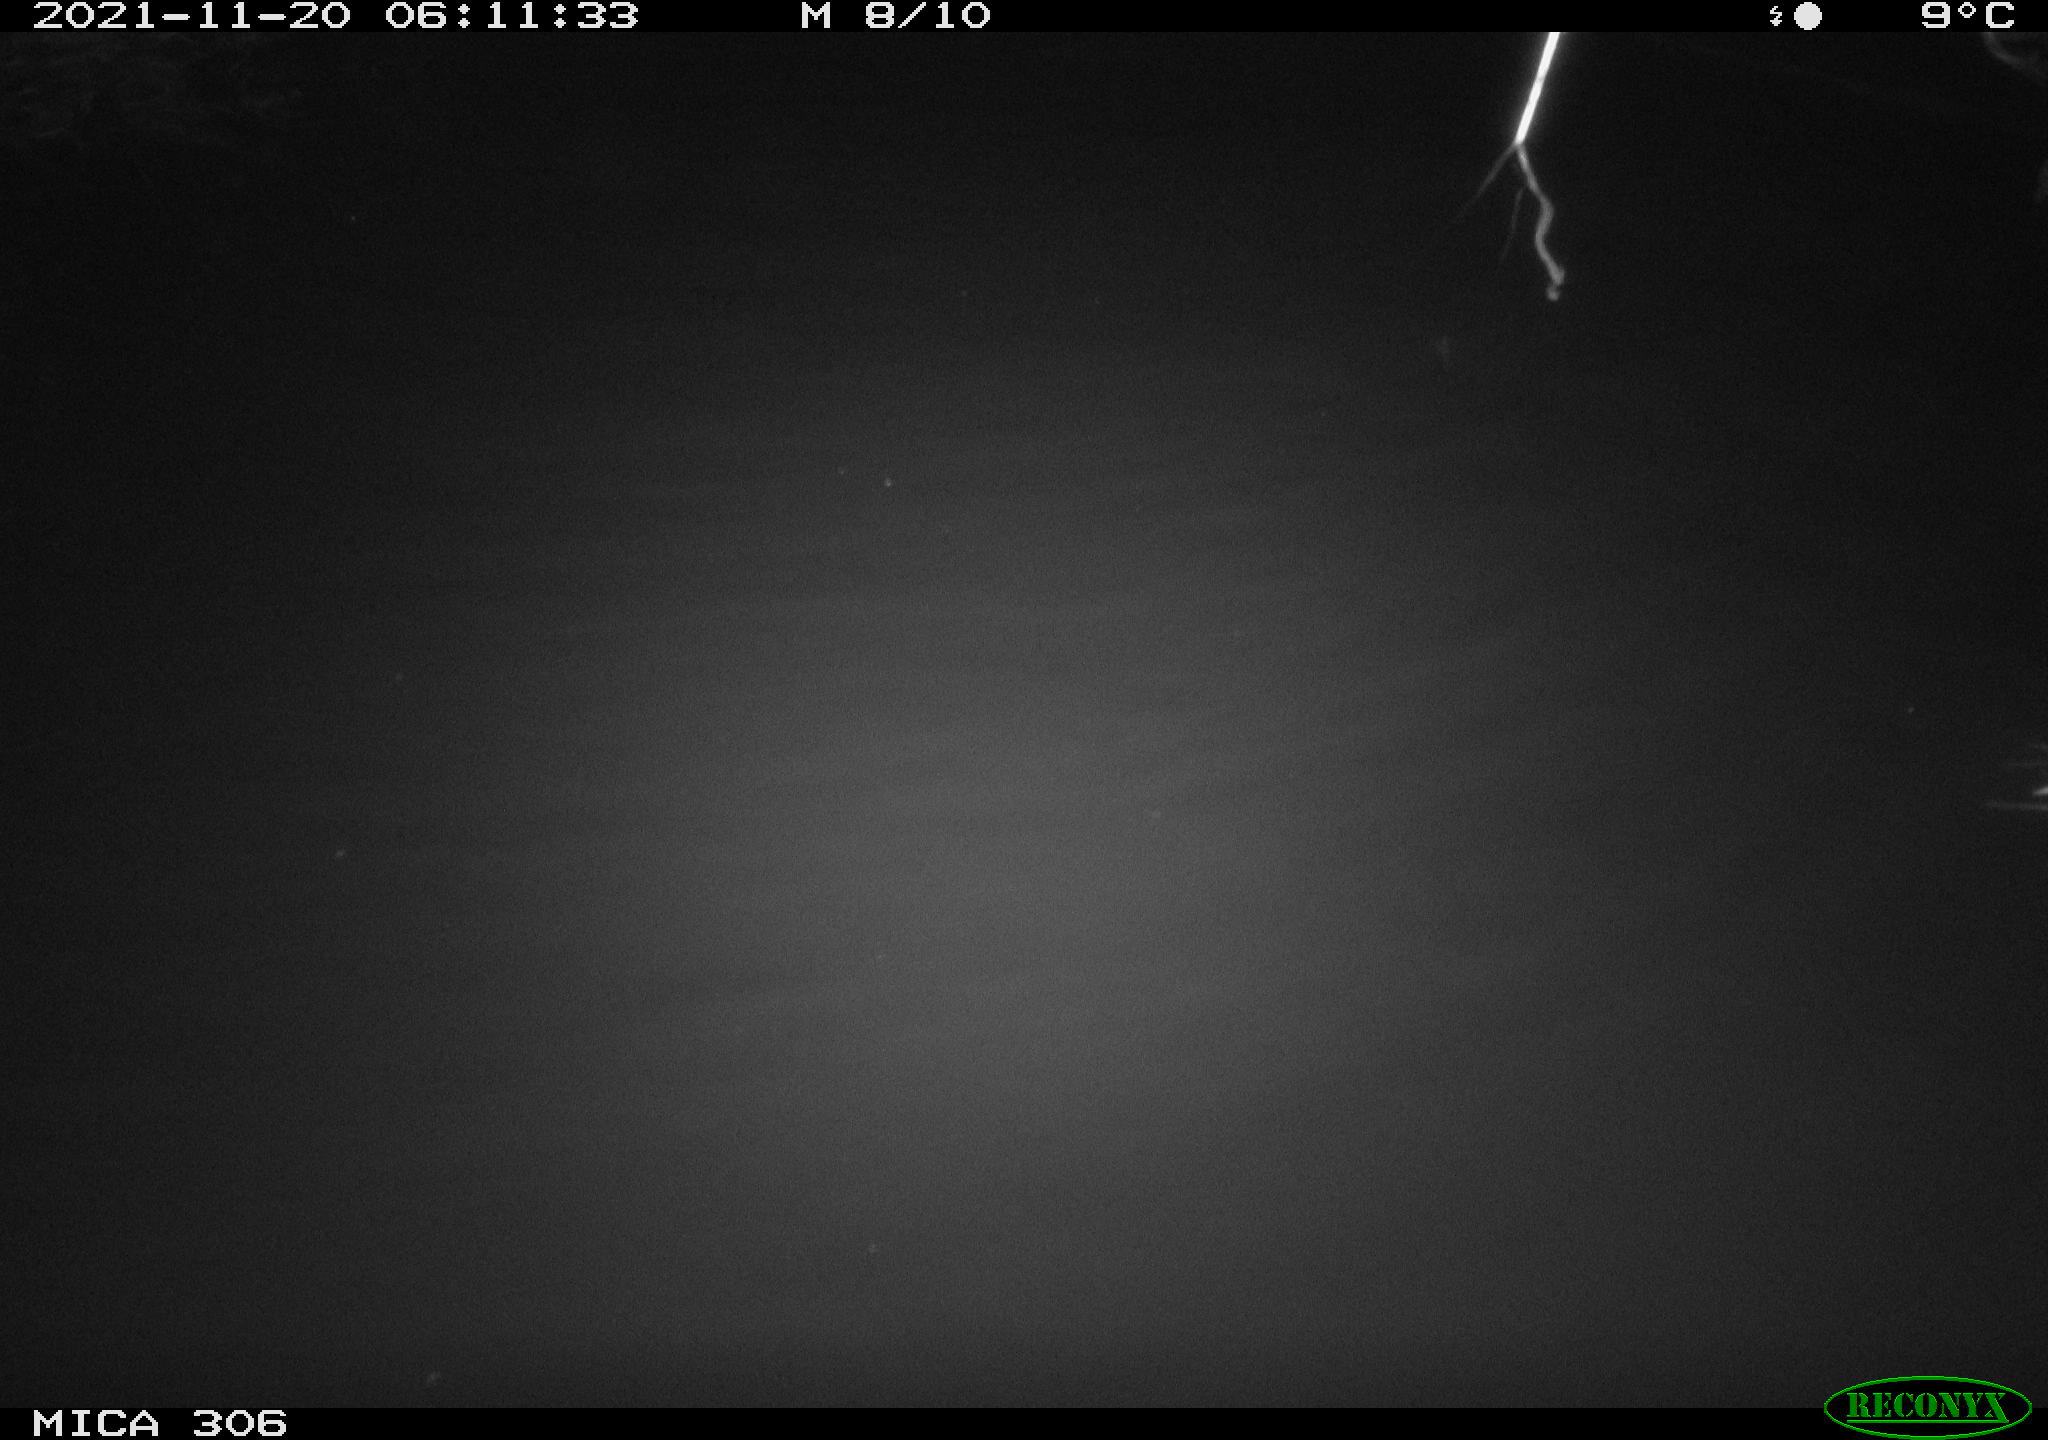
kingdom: Animalia
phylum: Chordata
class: Mammalia
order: Rodentia
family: Muridae
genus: Rattus
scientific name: Rattus norvegicus
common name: Brown rat
